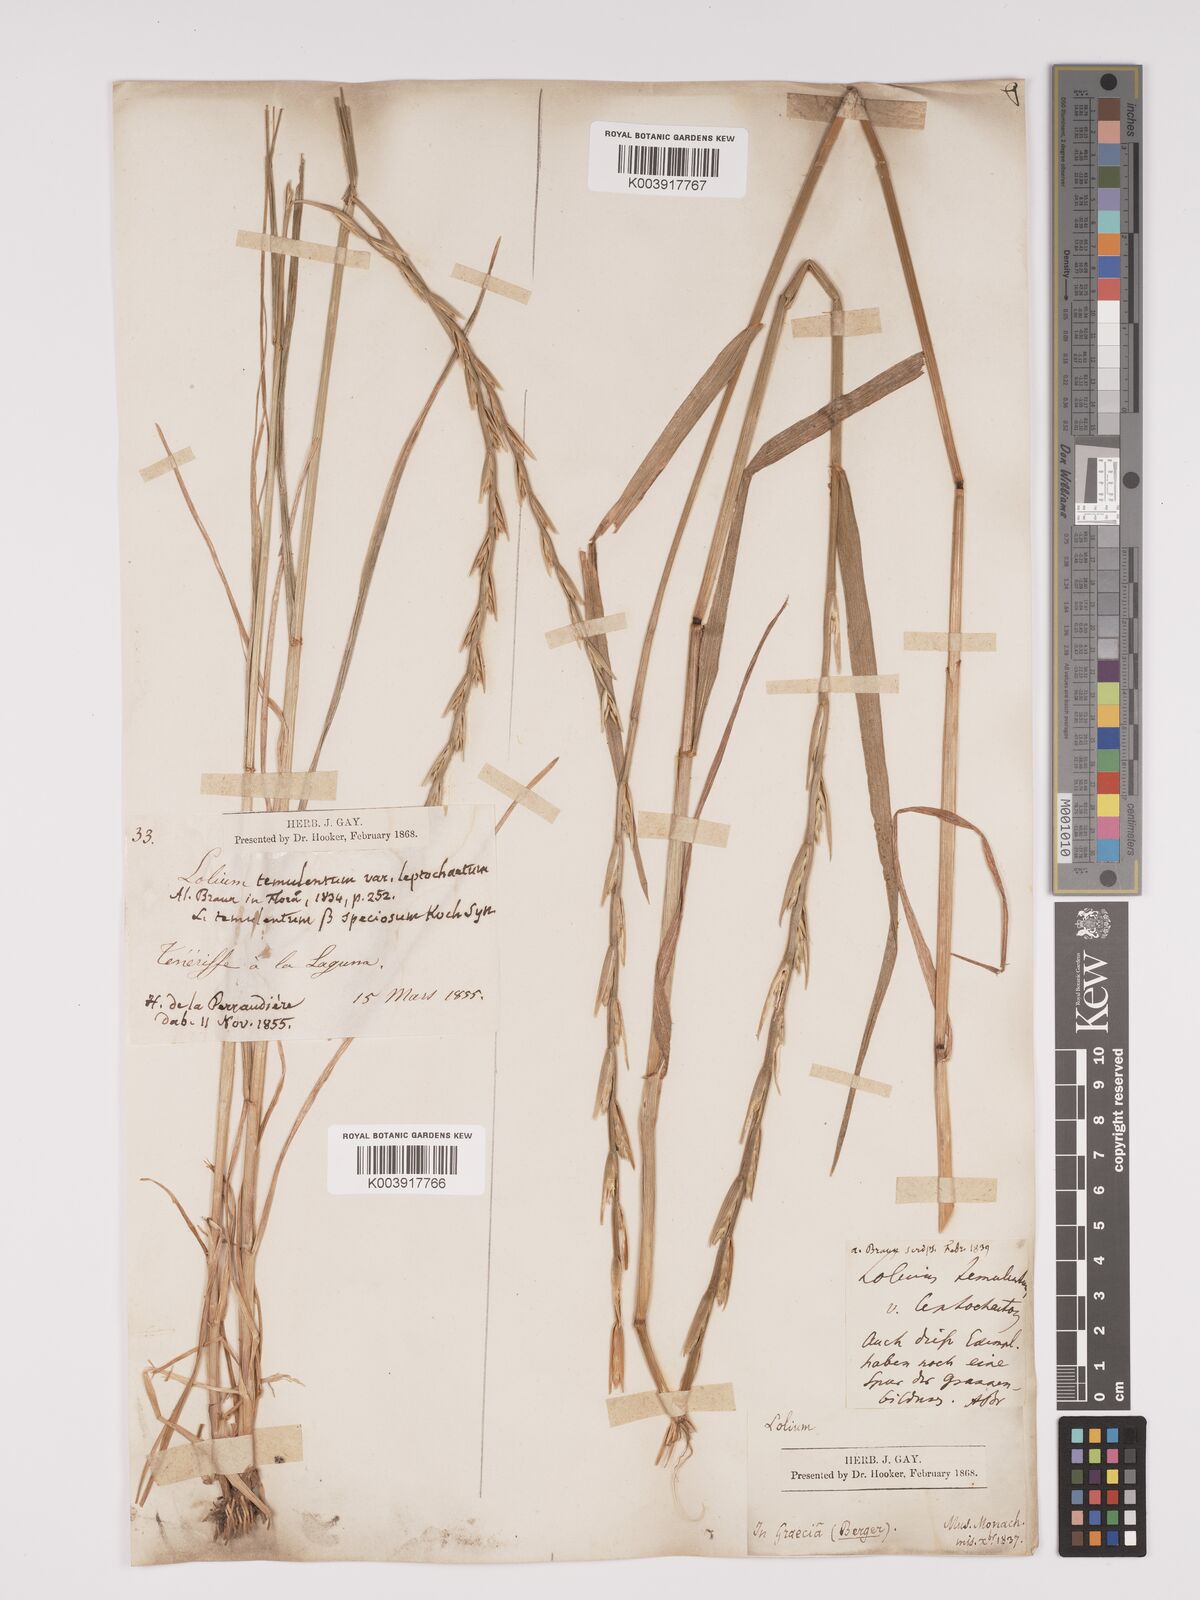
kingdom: Plantae
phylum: Tracheophyta
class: Liliopsida
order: Poales
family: Poaceae
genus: Lolium
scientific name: Lolium temulentum
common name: Darnel
